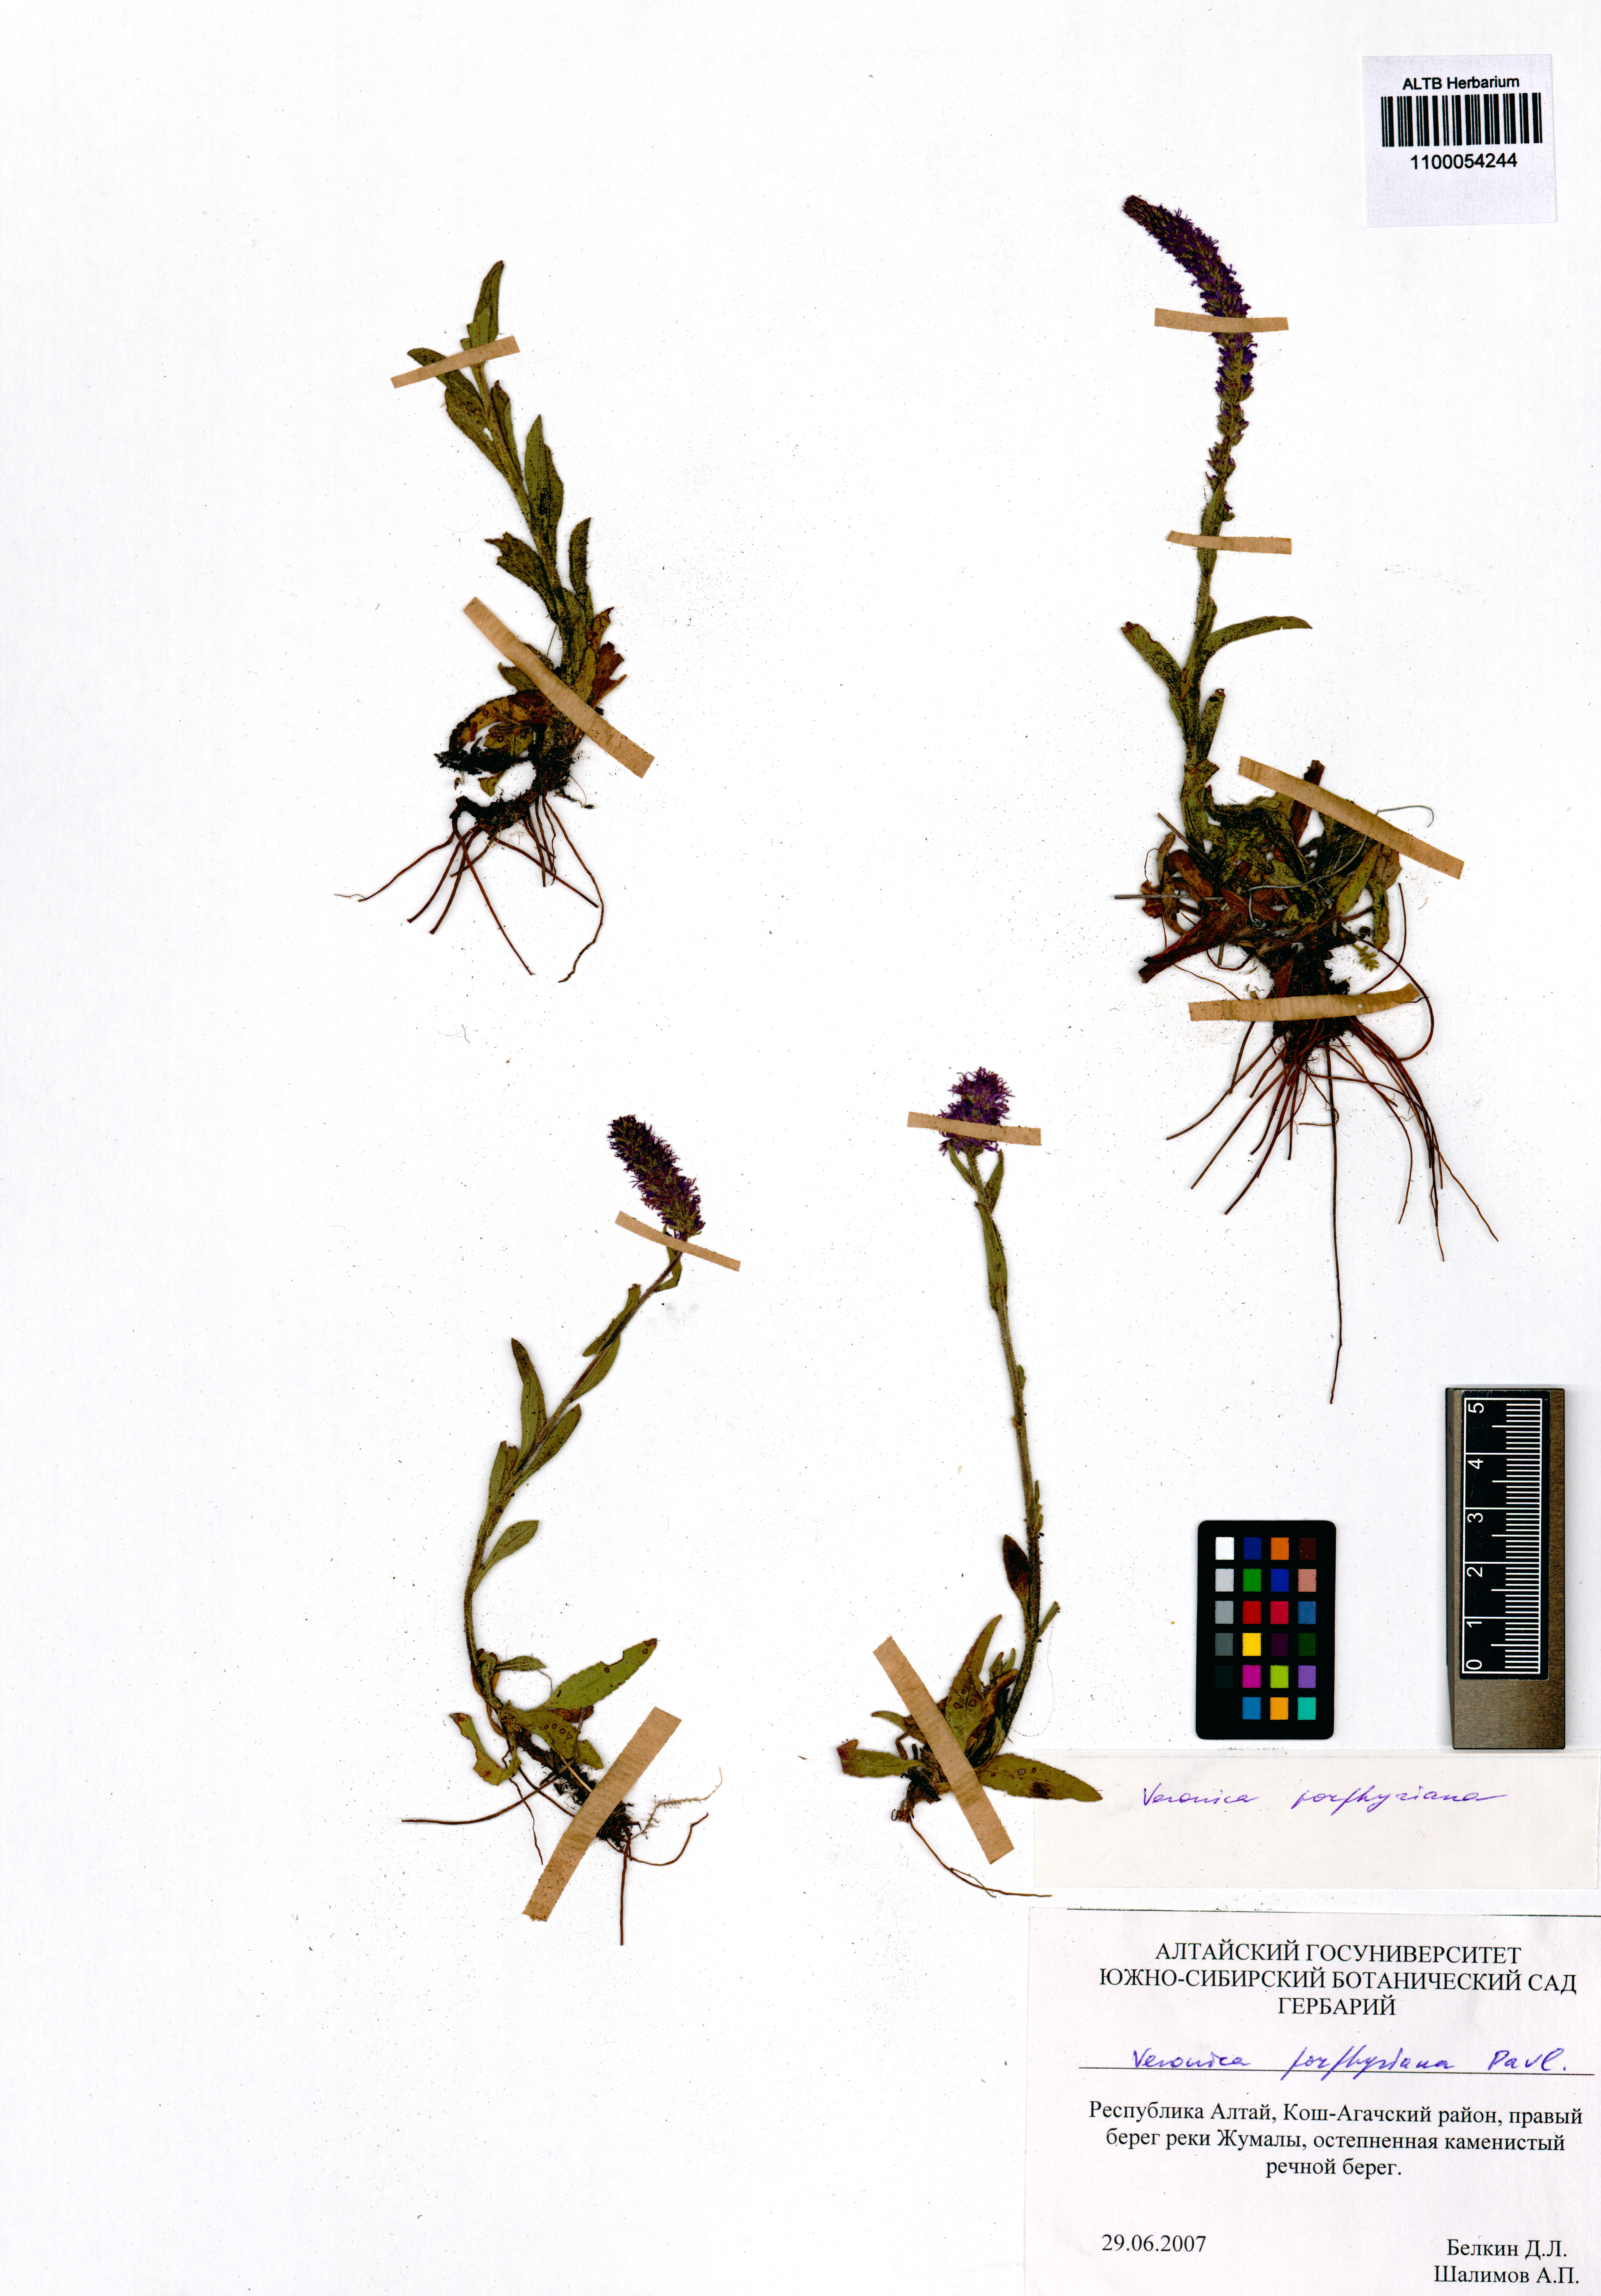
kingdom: Plantae
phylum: Tracheophyta
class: Magnoliopsida
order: Lamiales
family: Plantaginaceae
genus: Veronica
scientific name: Veronica porphyriana
